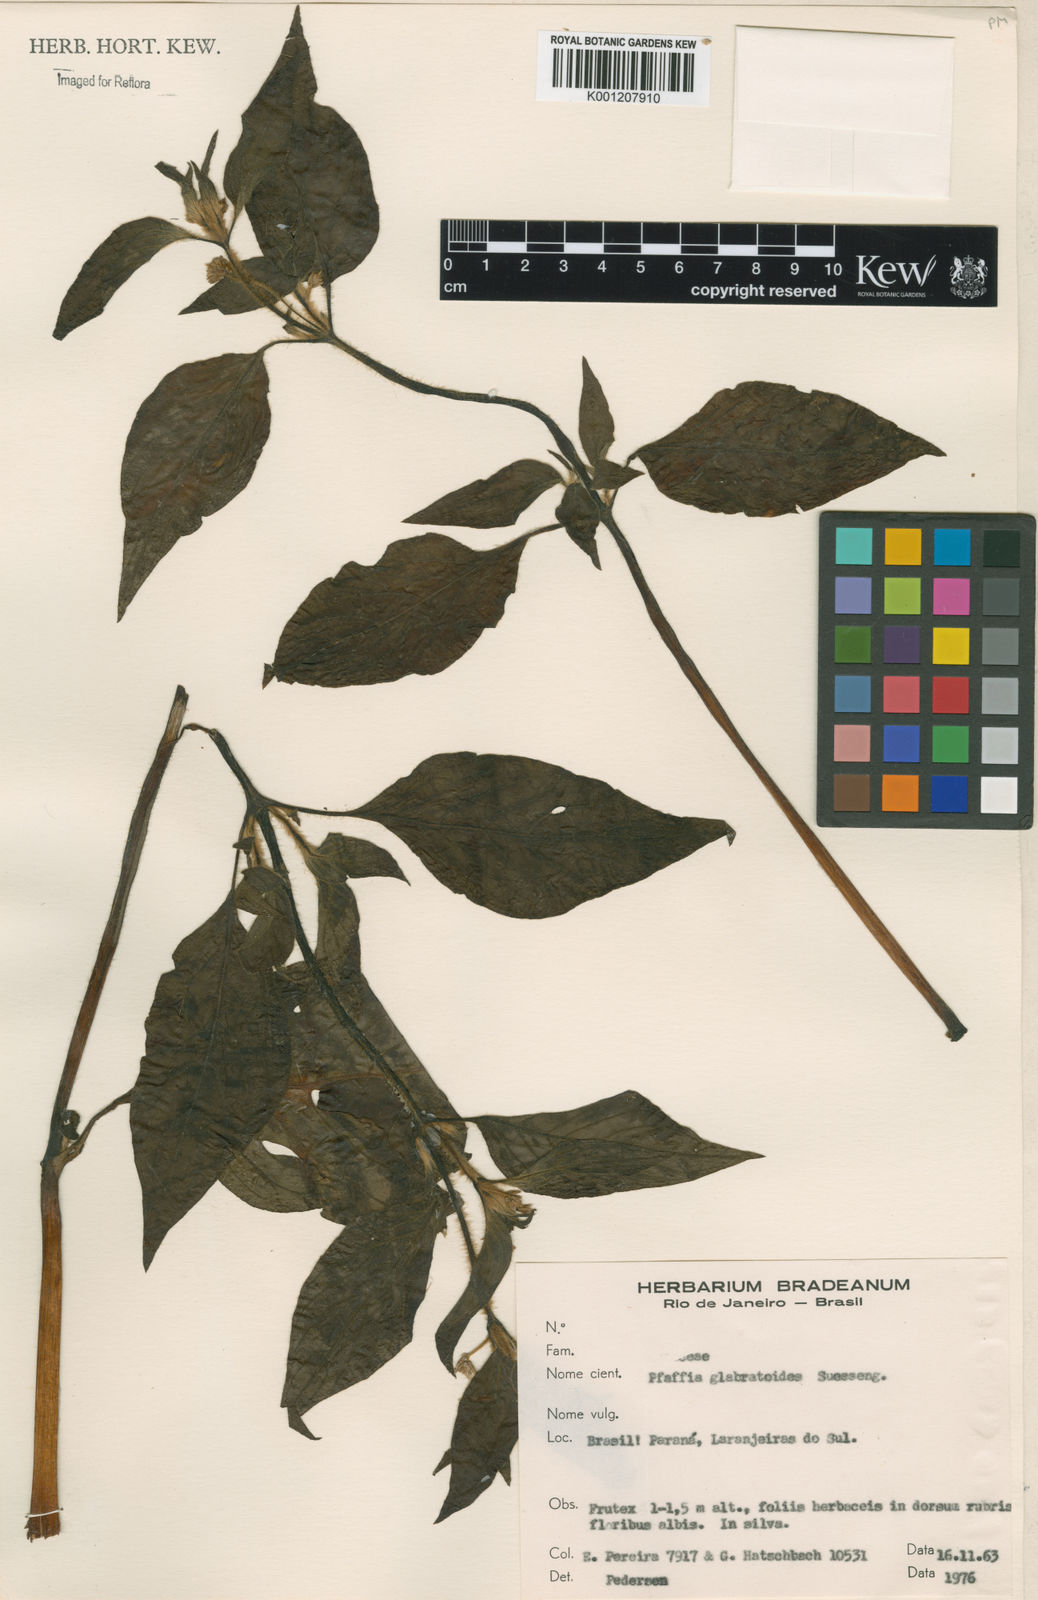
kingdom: Plantae
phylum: Tracheophyta
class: Magnoliopsida
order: Caryophyllales
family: Amaranthaceae
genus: Quaternella
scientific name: Quaternella glabratoides
